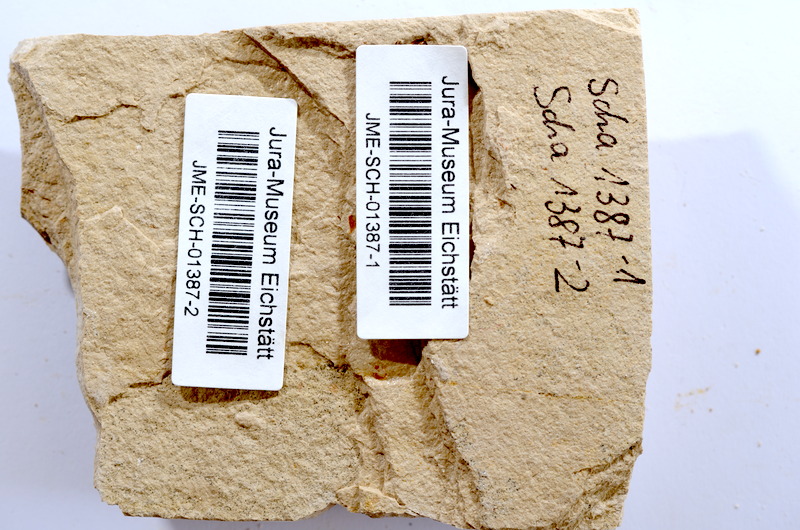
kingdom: Animalia
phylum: Chordata
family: Ascalaboidae
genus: Tharsis
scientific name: Tharsis dubius
